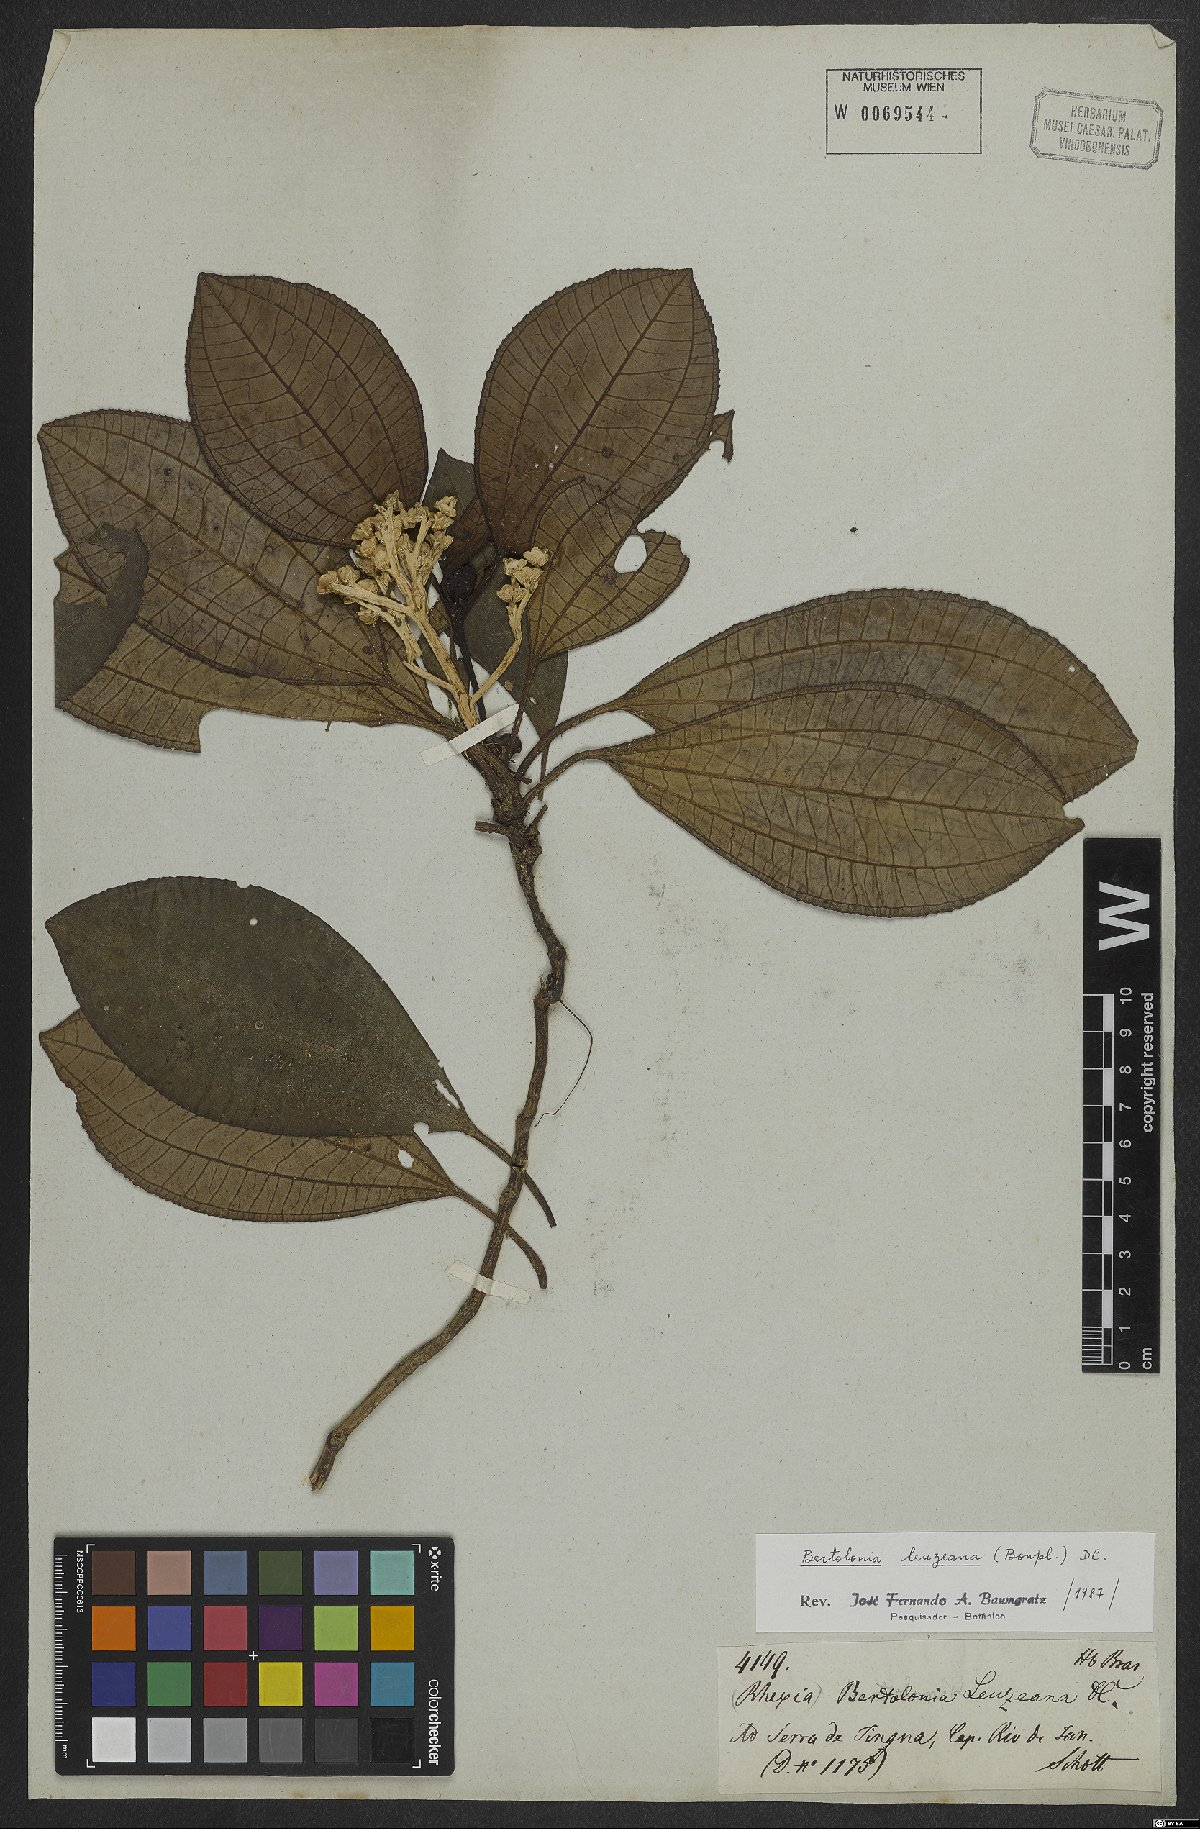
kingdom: Plantae
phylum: Tracheophyta
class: Magnoliopsida
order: Myrtales
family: Melastomataceae
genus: Bertolonia
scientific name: Bertolonia leuzeana
